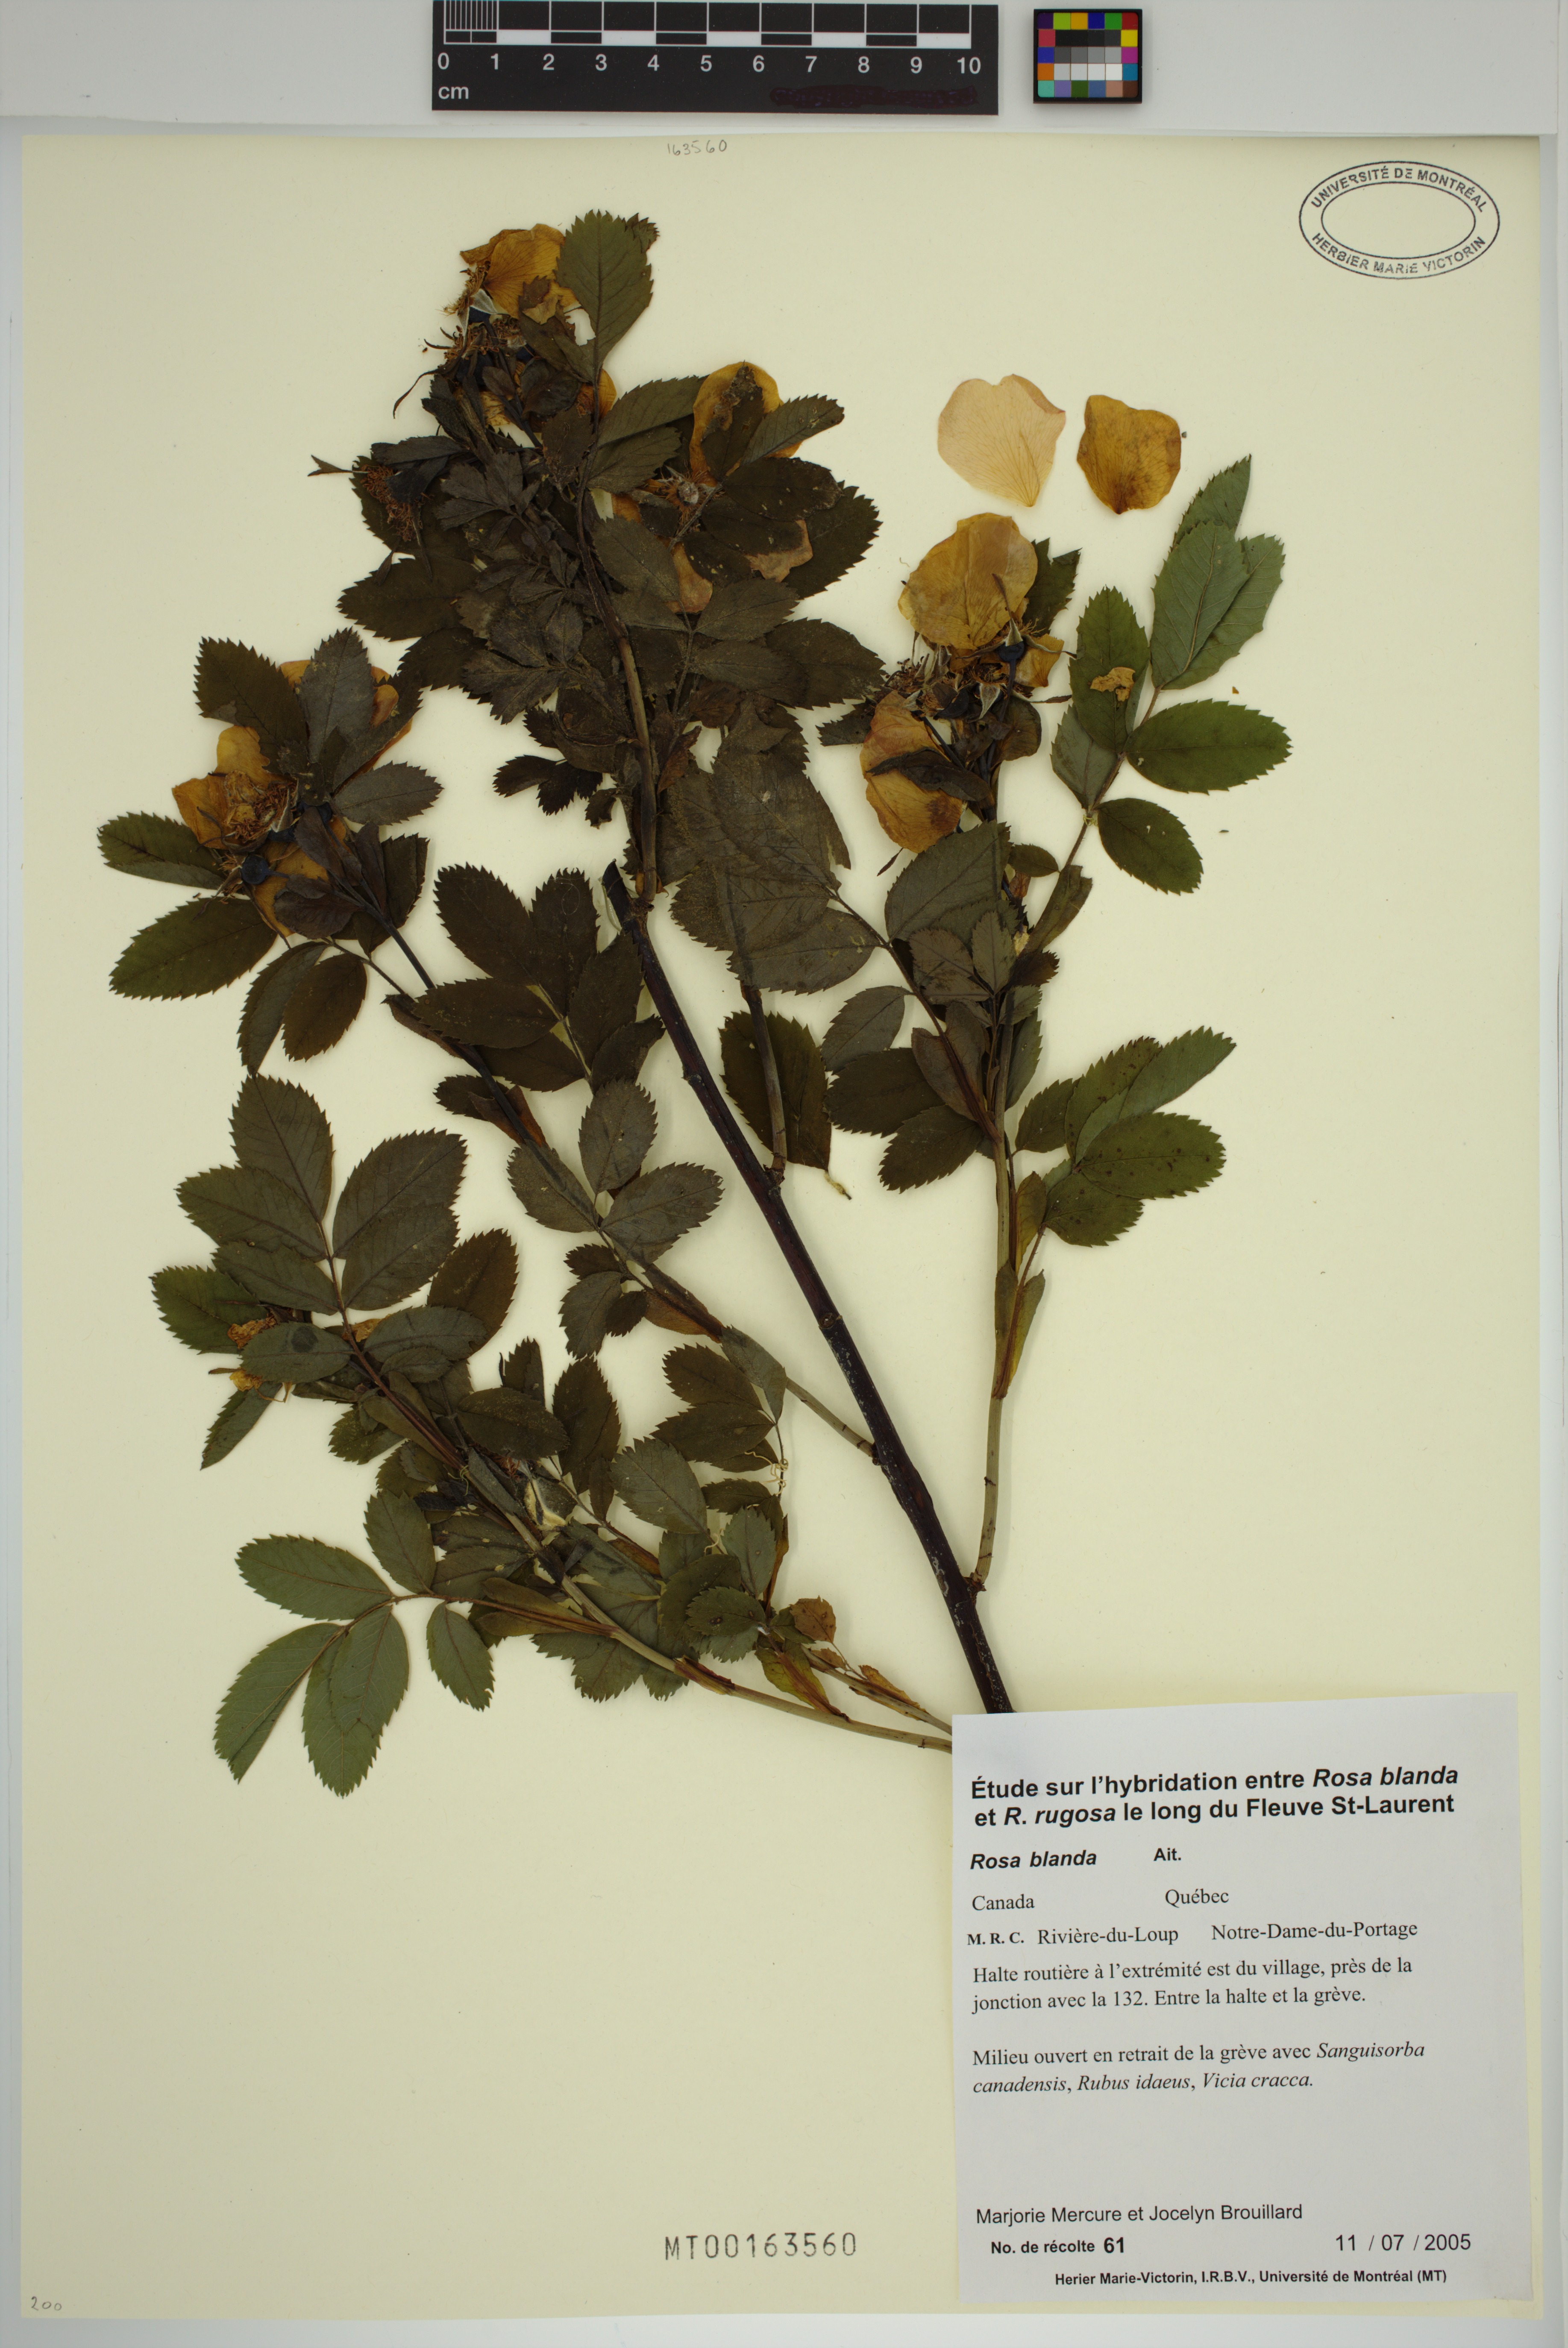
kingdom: Plantae
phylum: Tracheophyta
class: Magnoliopsida
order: Rosales
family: Rosaceae
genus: Rosa
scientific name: Rosa blanda
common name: Smooth rose
